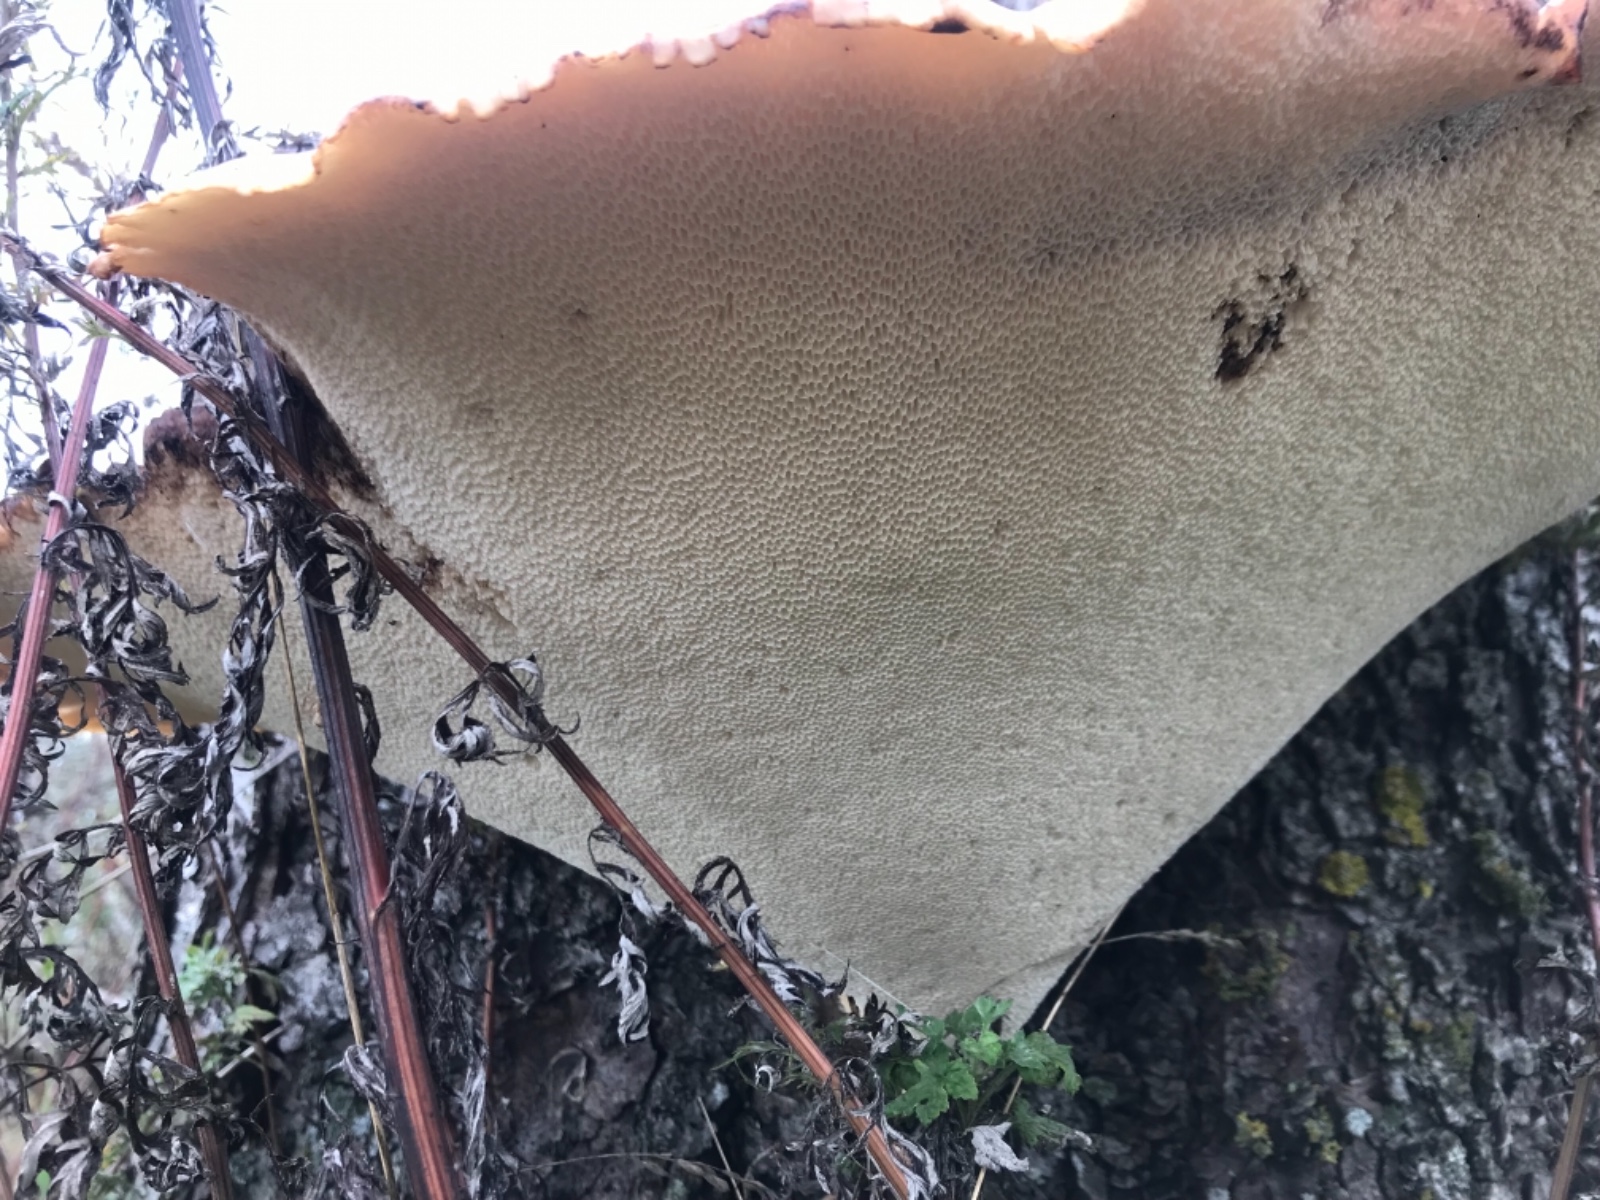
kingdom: Fungi
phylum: Basidiomycota
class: Agaricomycetes
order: Polyporales
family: Polyporaceae
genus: Cerioporus
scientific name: Cerioporus squamosus
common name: skællet stilkporesvamp
